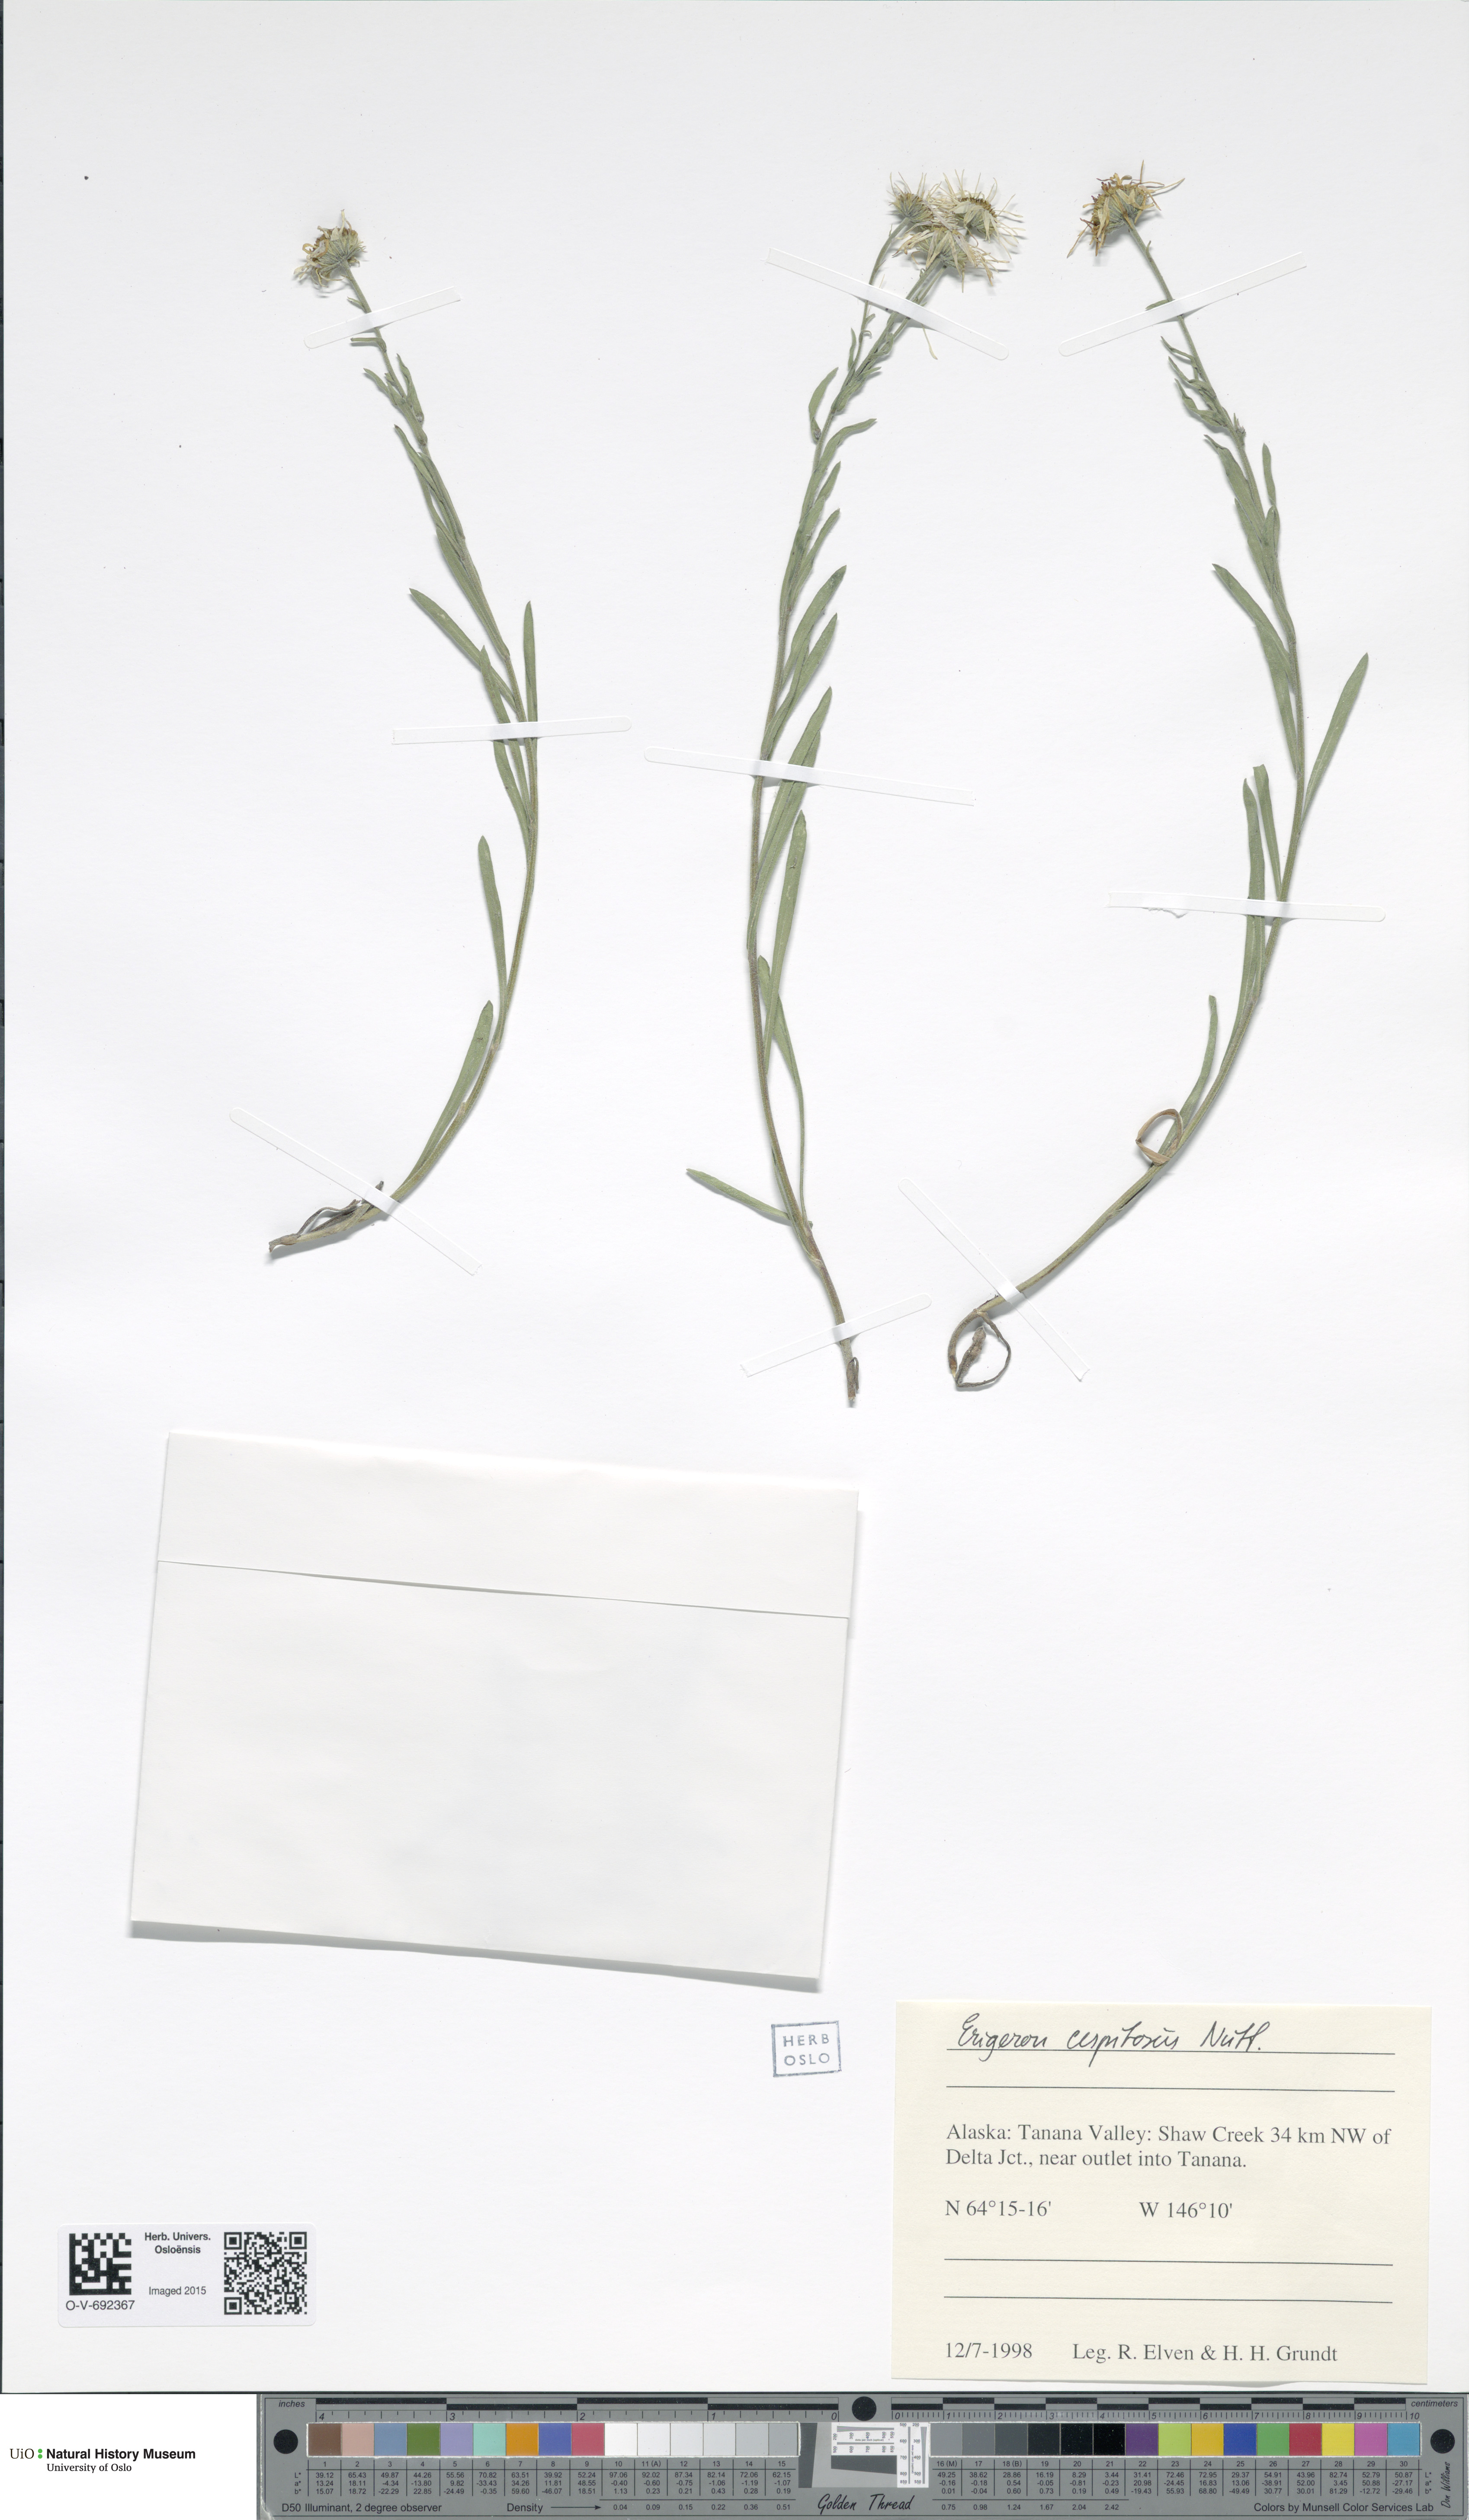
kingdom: Plantae
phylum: Tracheophyta
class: Magnoliopsida
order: Asterales
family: Asteraceae
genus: Erigeron
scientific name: Erigeron cespitosus
